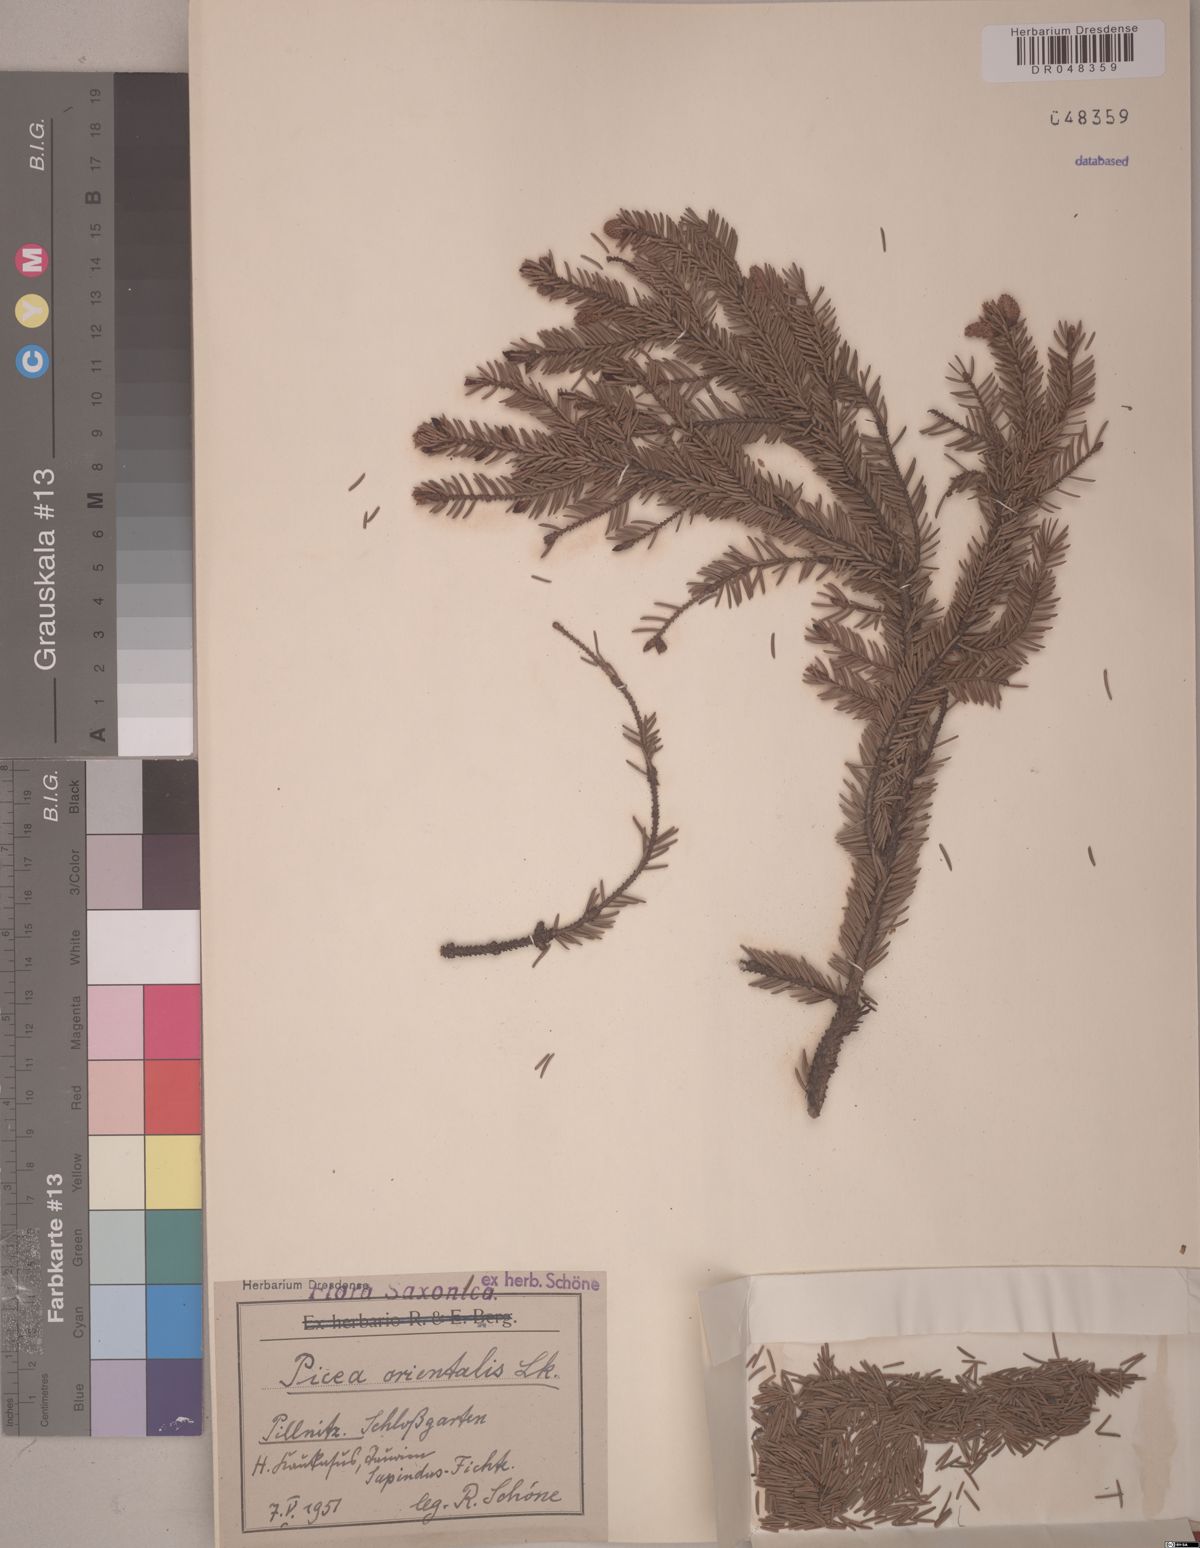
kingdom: Plantae
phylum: Tracheophyta
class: Pinopsida
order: Pinales
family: Pinaceae
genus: Picea
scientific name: Picea orientalis
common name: Oriental spruce
